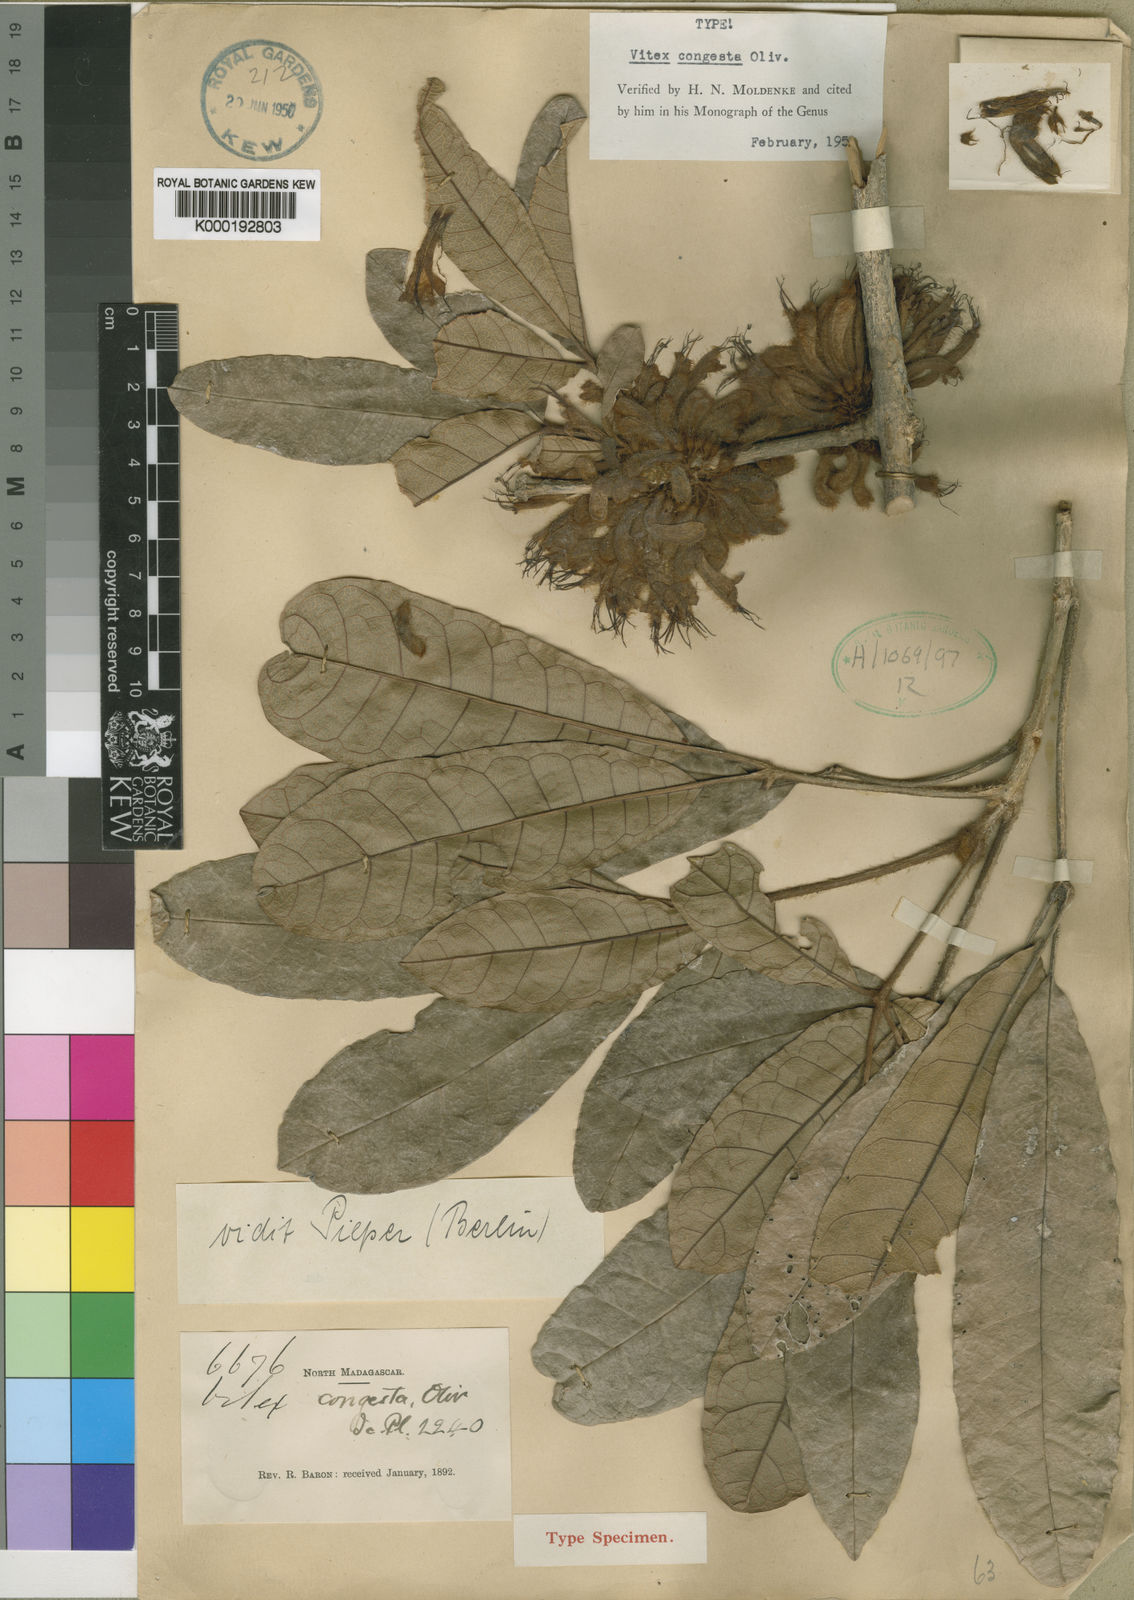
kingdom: Plantae
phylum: Tracheophyta
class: Magnoliopsida
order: Lamiales
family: Lamiaceae
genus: Vitex
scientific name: Vitex hispidissima
